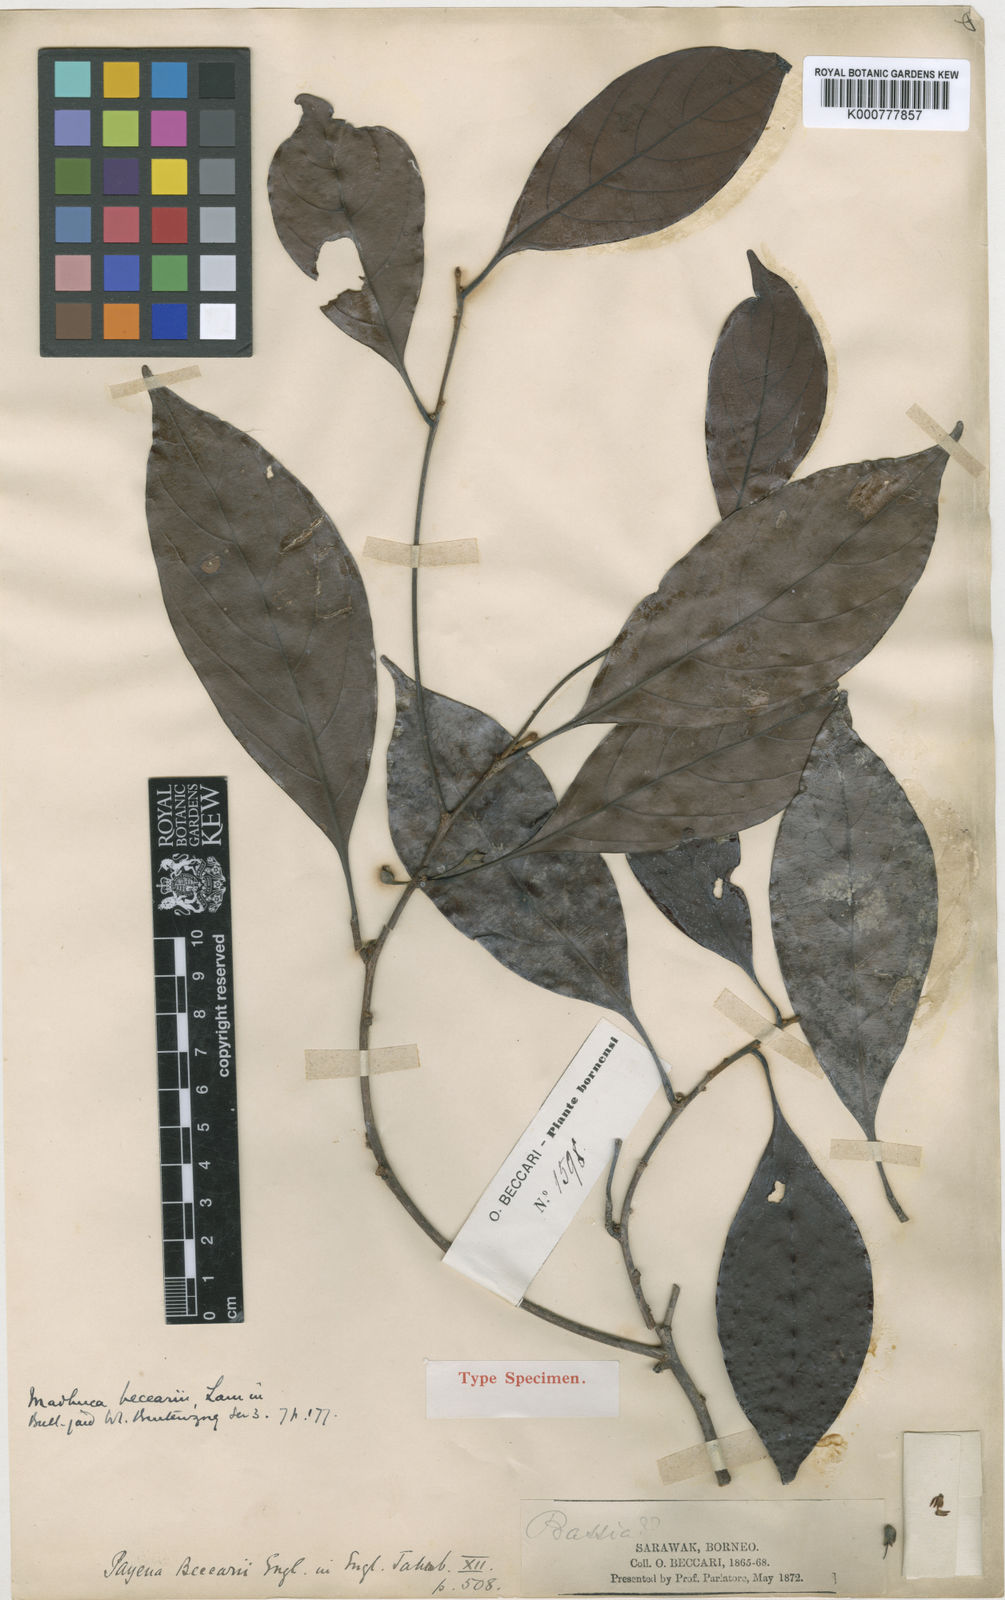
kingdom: Plantae
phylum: Tracheophyta
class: Magnoliopsida
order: Ericales
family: Sapotaceae
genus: Madhuca
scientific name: Madhuca engleri
